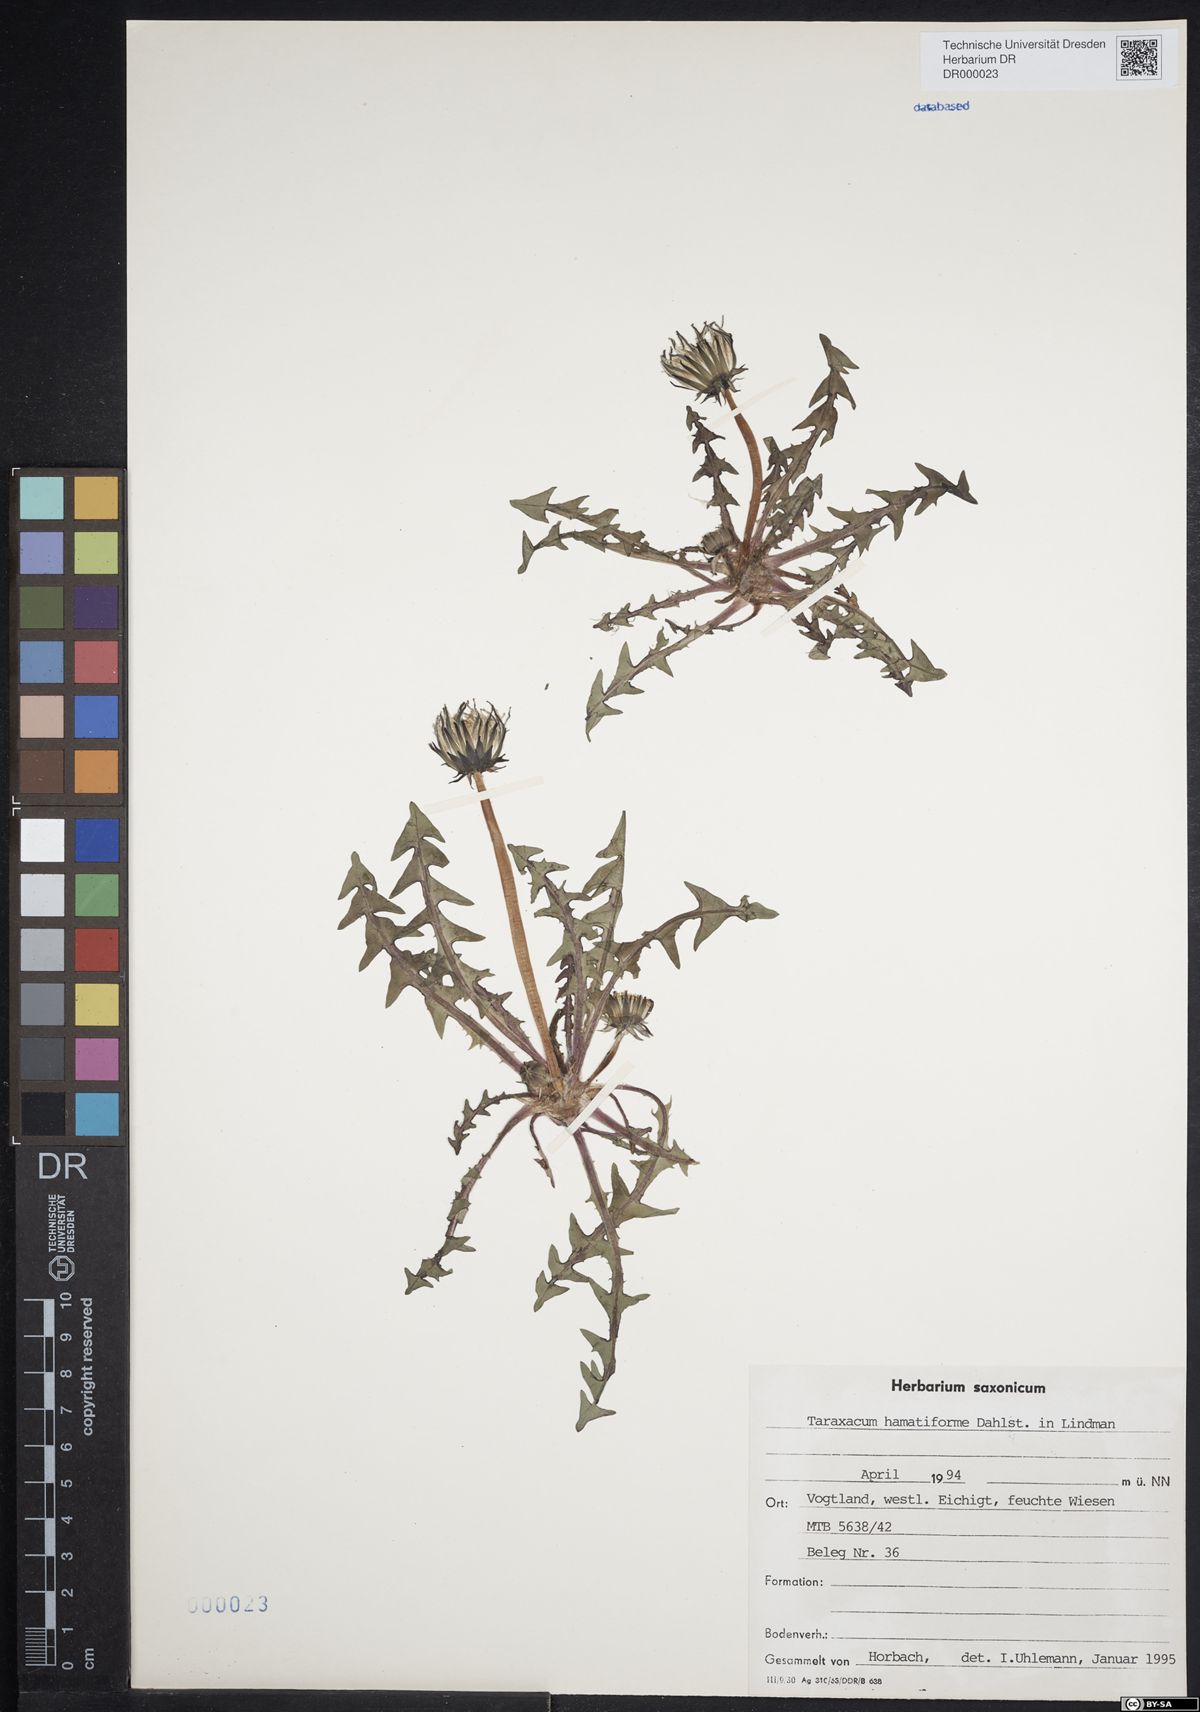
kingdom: Plantae
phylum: Tracheophyta
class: Magnoliopsida
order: Asterales
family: Asteraceae
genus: Taraxacum
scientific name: Taraxacum hamatiforme
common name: Asymmetrical hook-lobed dandelion
